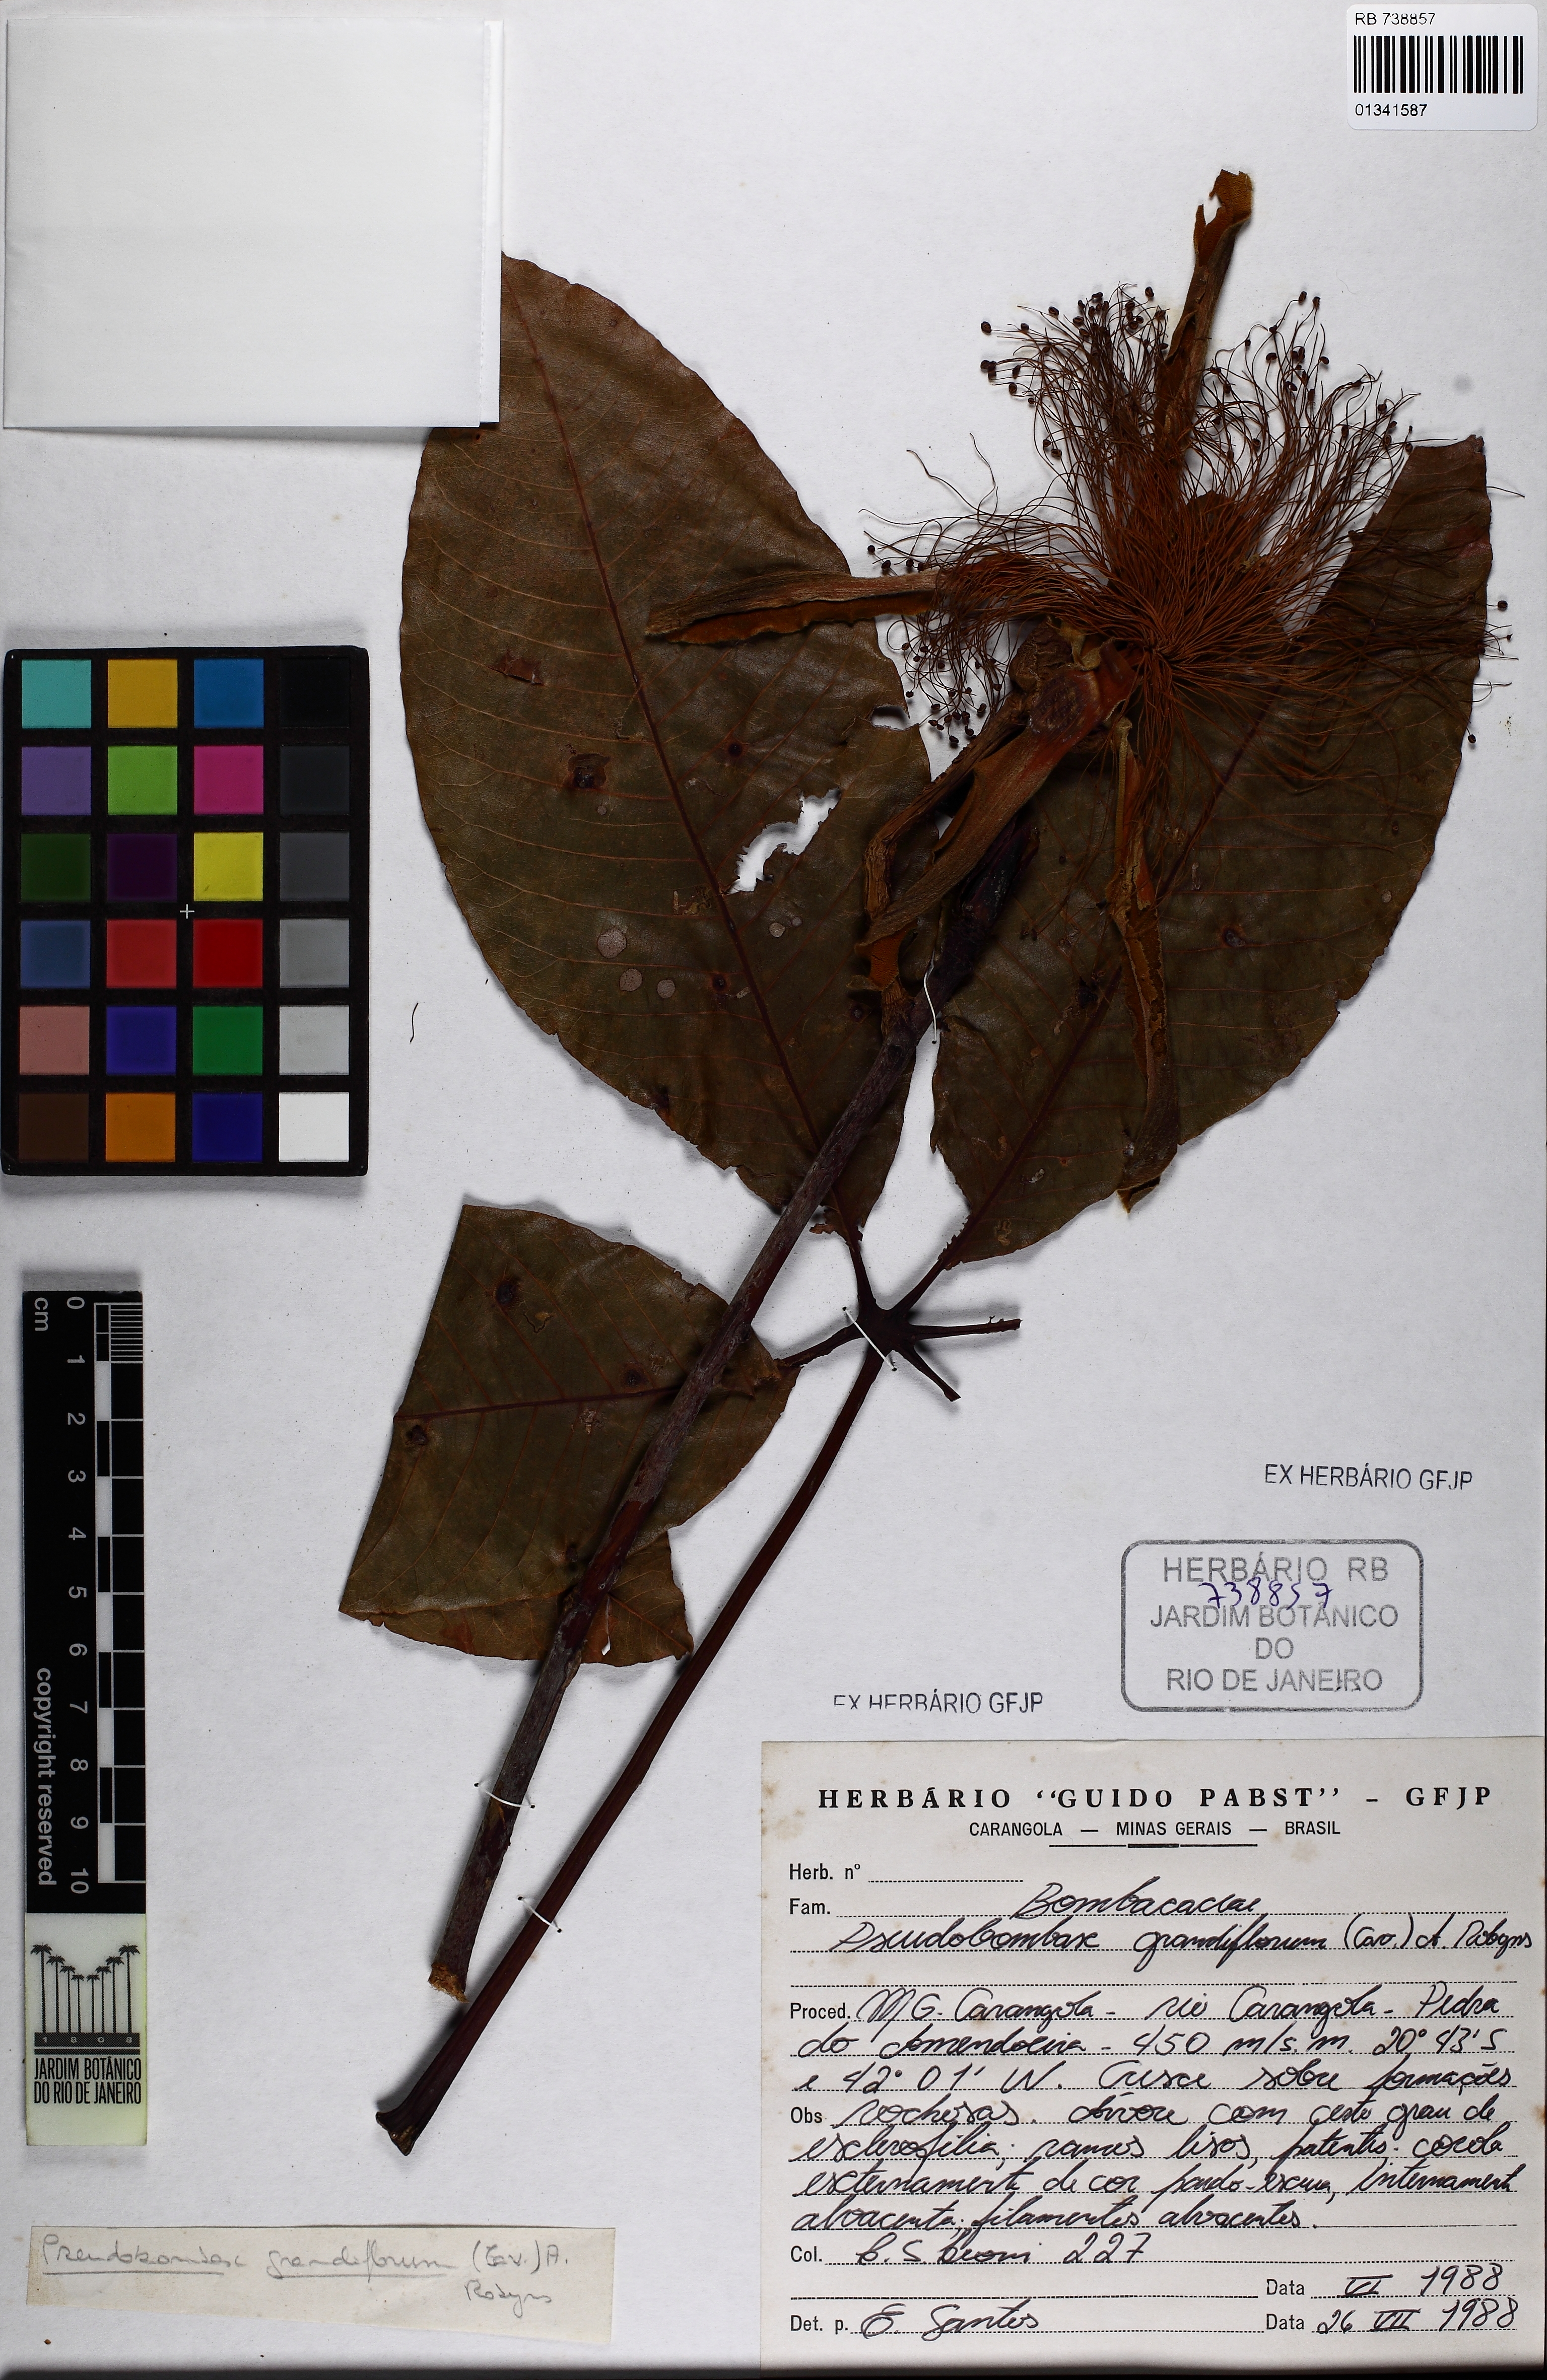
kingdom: Plantae
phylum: Tracheophyta
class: Magnoliopsida
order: Malvales
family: Malvaceae
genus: Pseudobombax
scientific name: Pseudobombax grandiflorum
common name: Brazilian shaving-brush-tree
